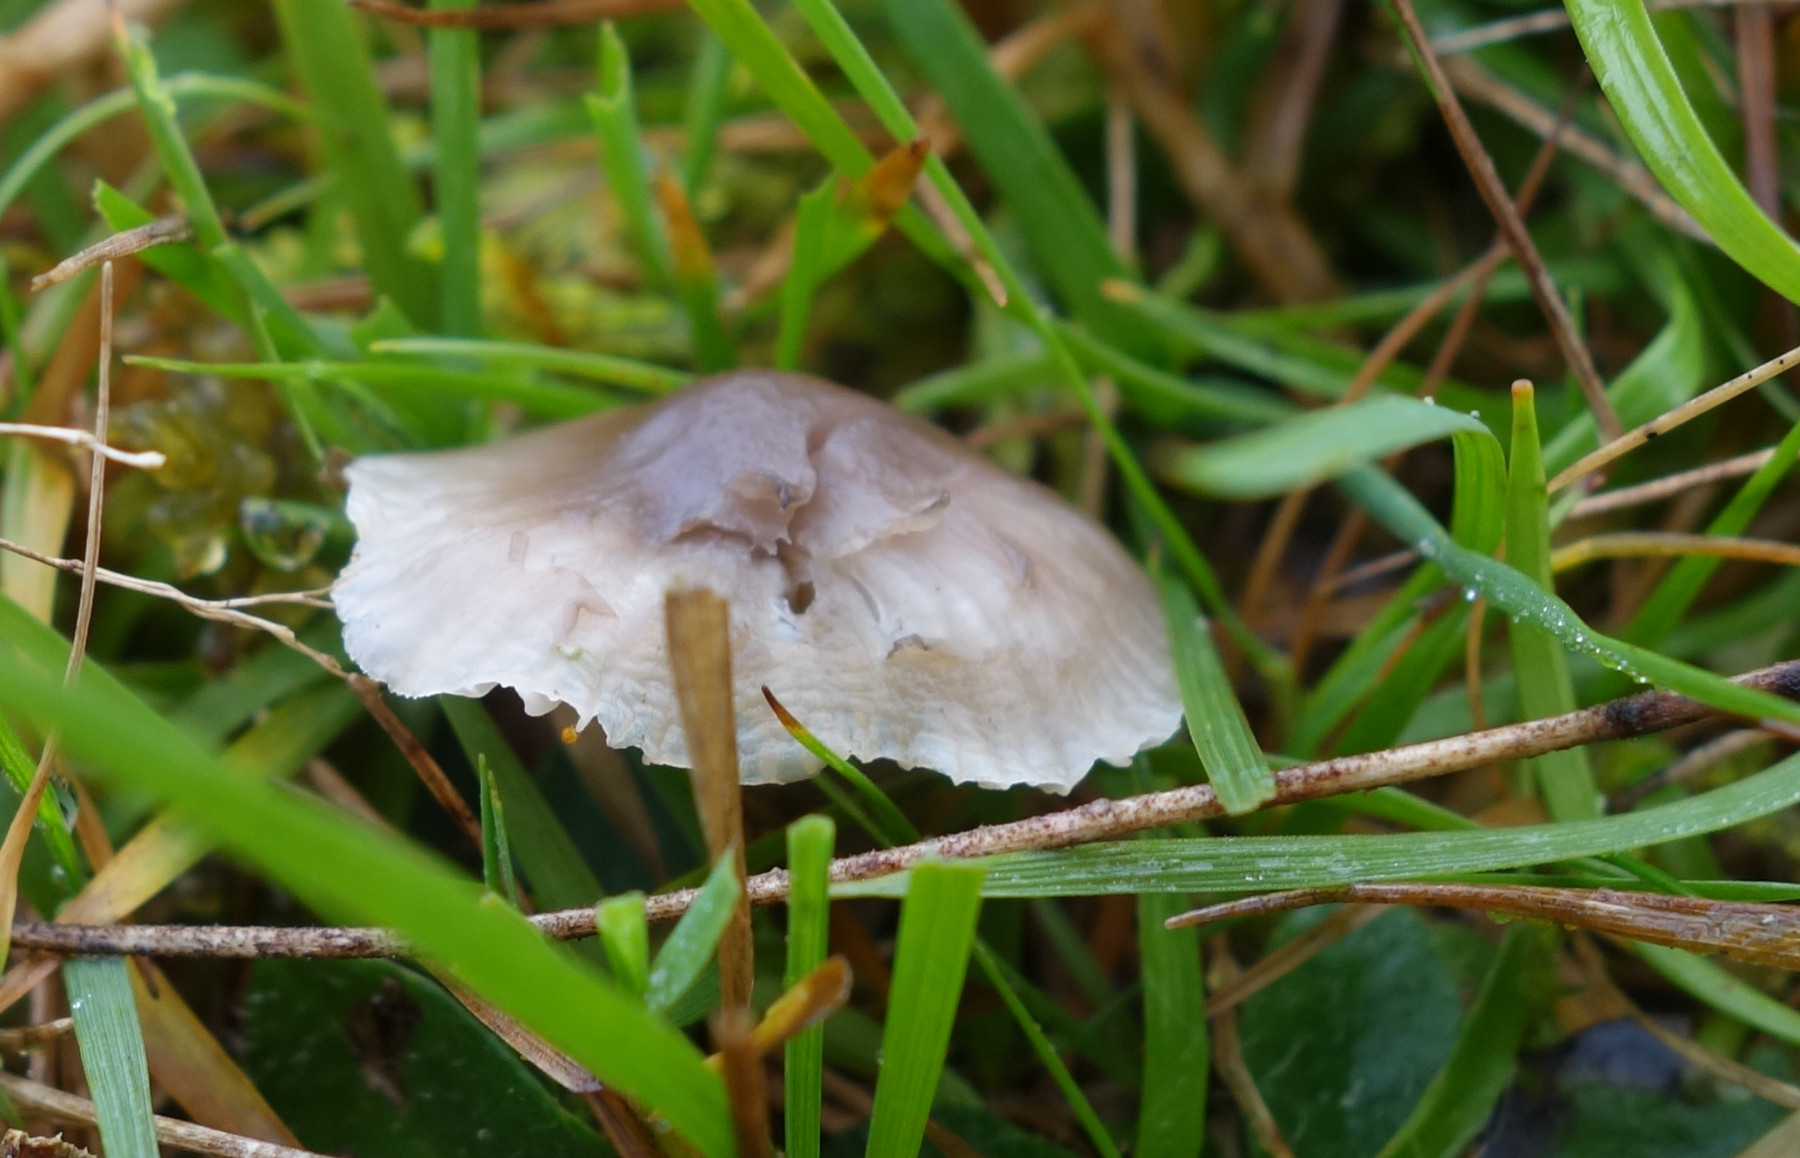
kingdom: Fungi
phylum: Basidiomycota
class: Agaricomycetes
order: Agaricales
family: Hygrophoraceae
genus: Cuphophyllus
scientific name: Cuphophyllus flavipes
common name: gulfodet vokshat
